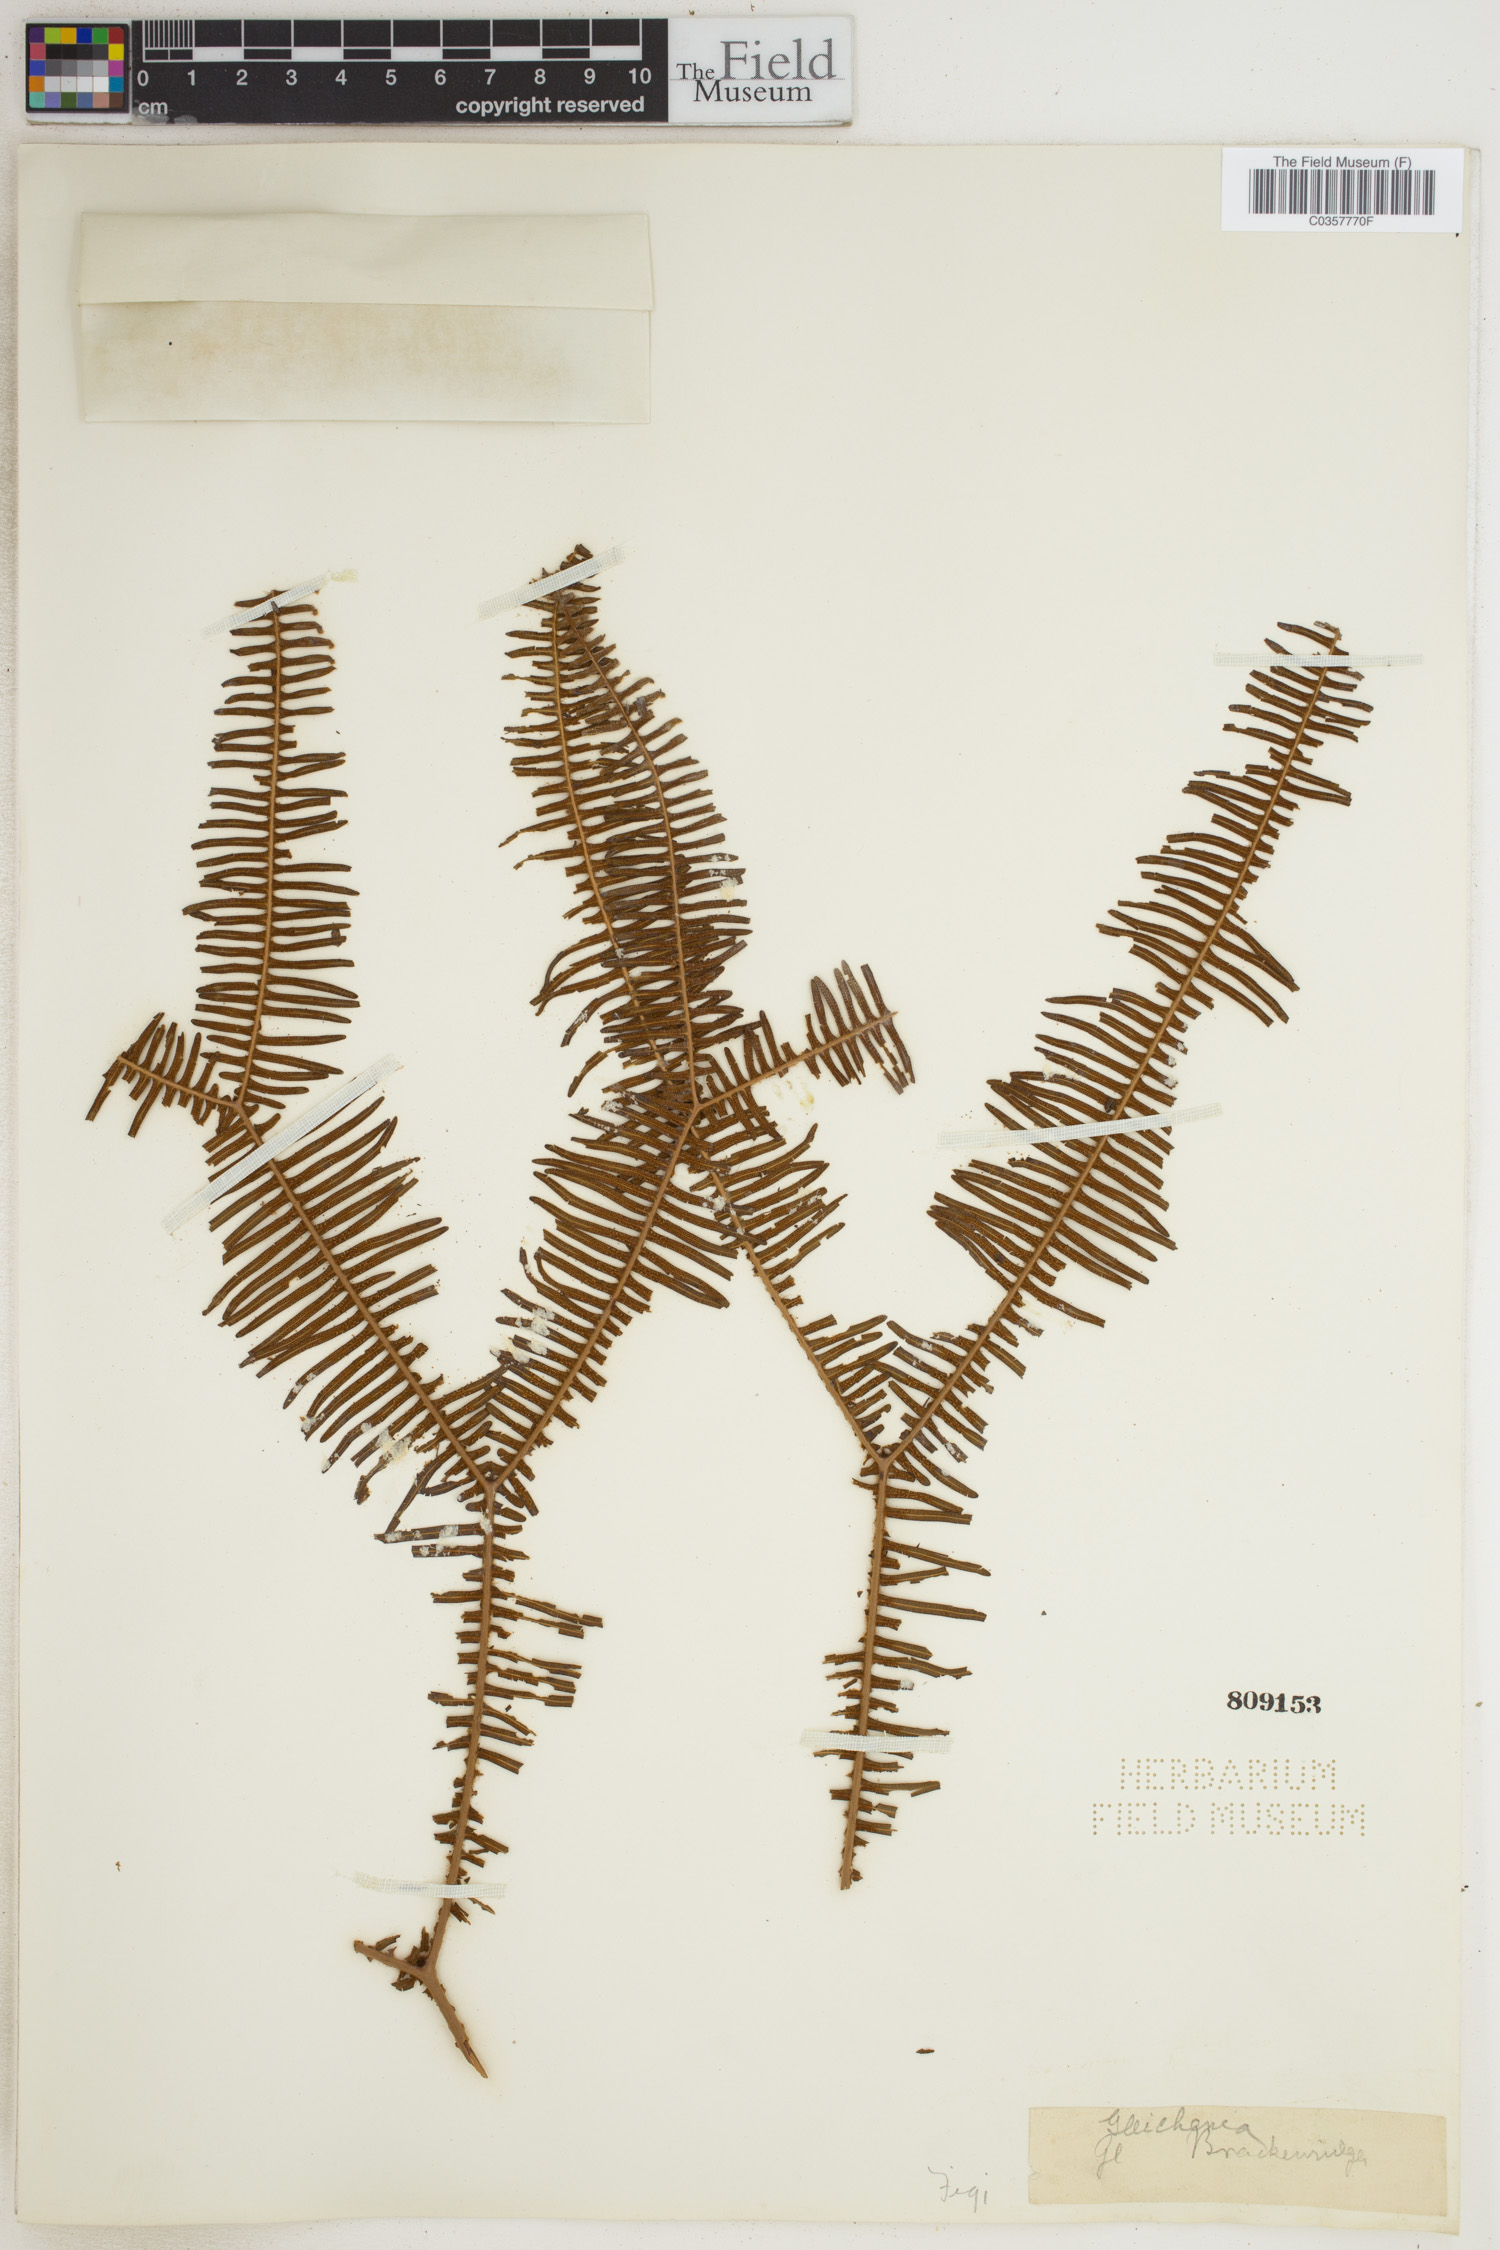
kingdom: Plantae
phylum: Tracheophyta
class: Polypodiopsida
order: Gleicheniales
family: Gleicheniaceae
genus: Gleichenia
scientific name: Gleichenia
